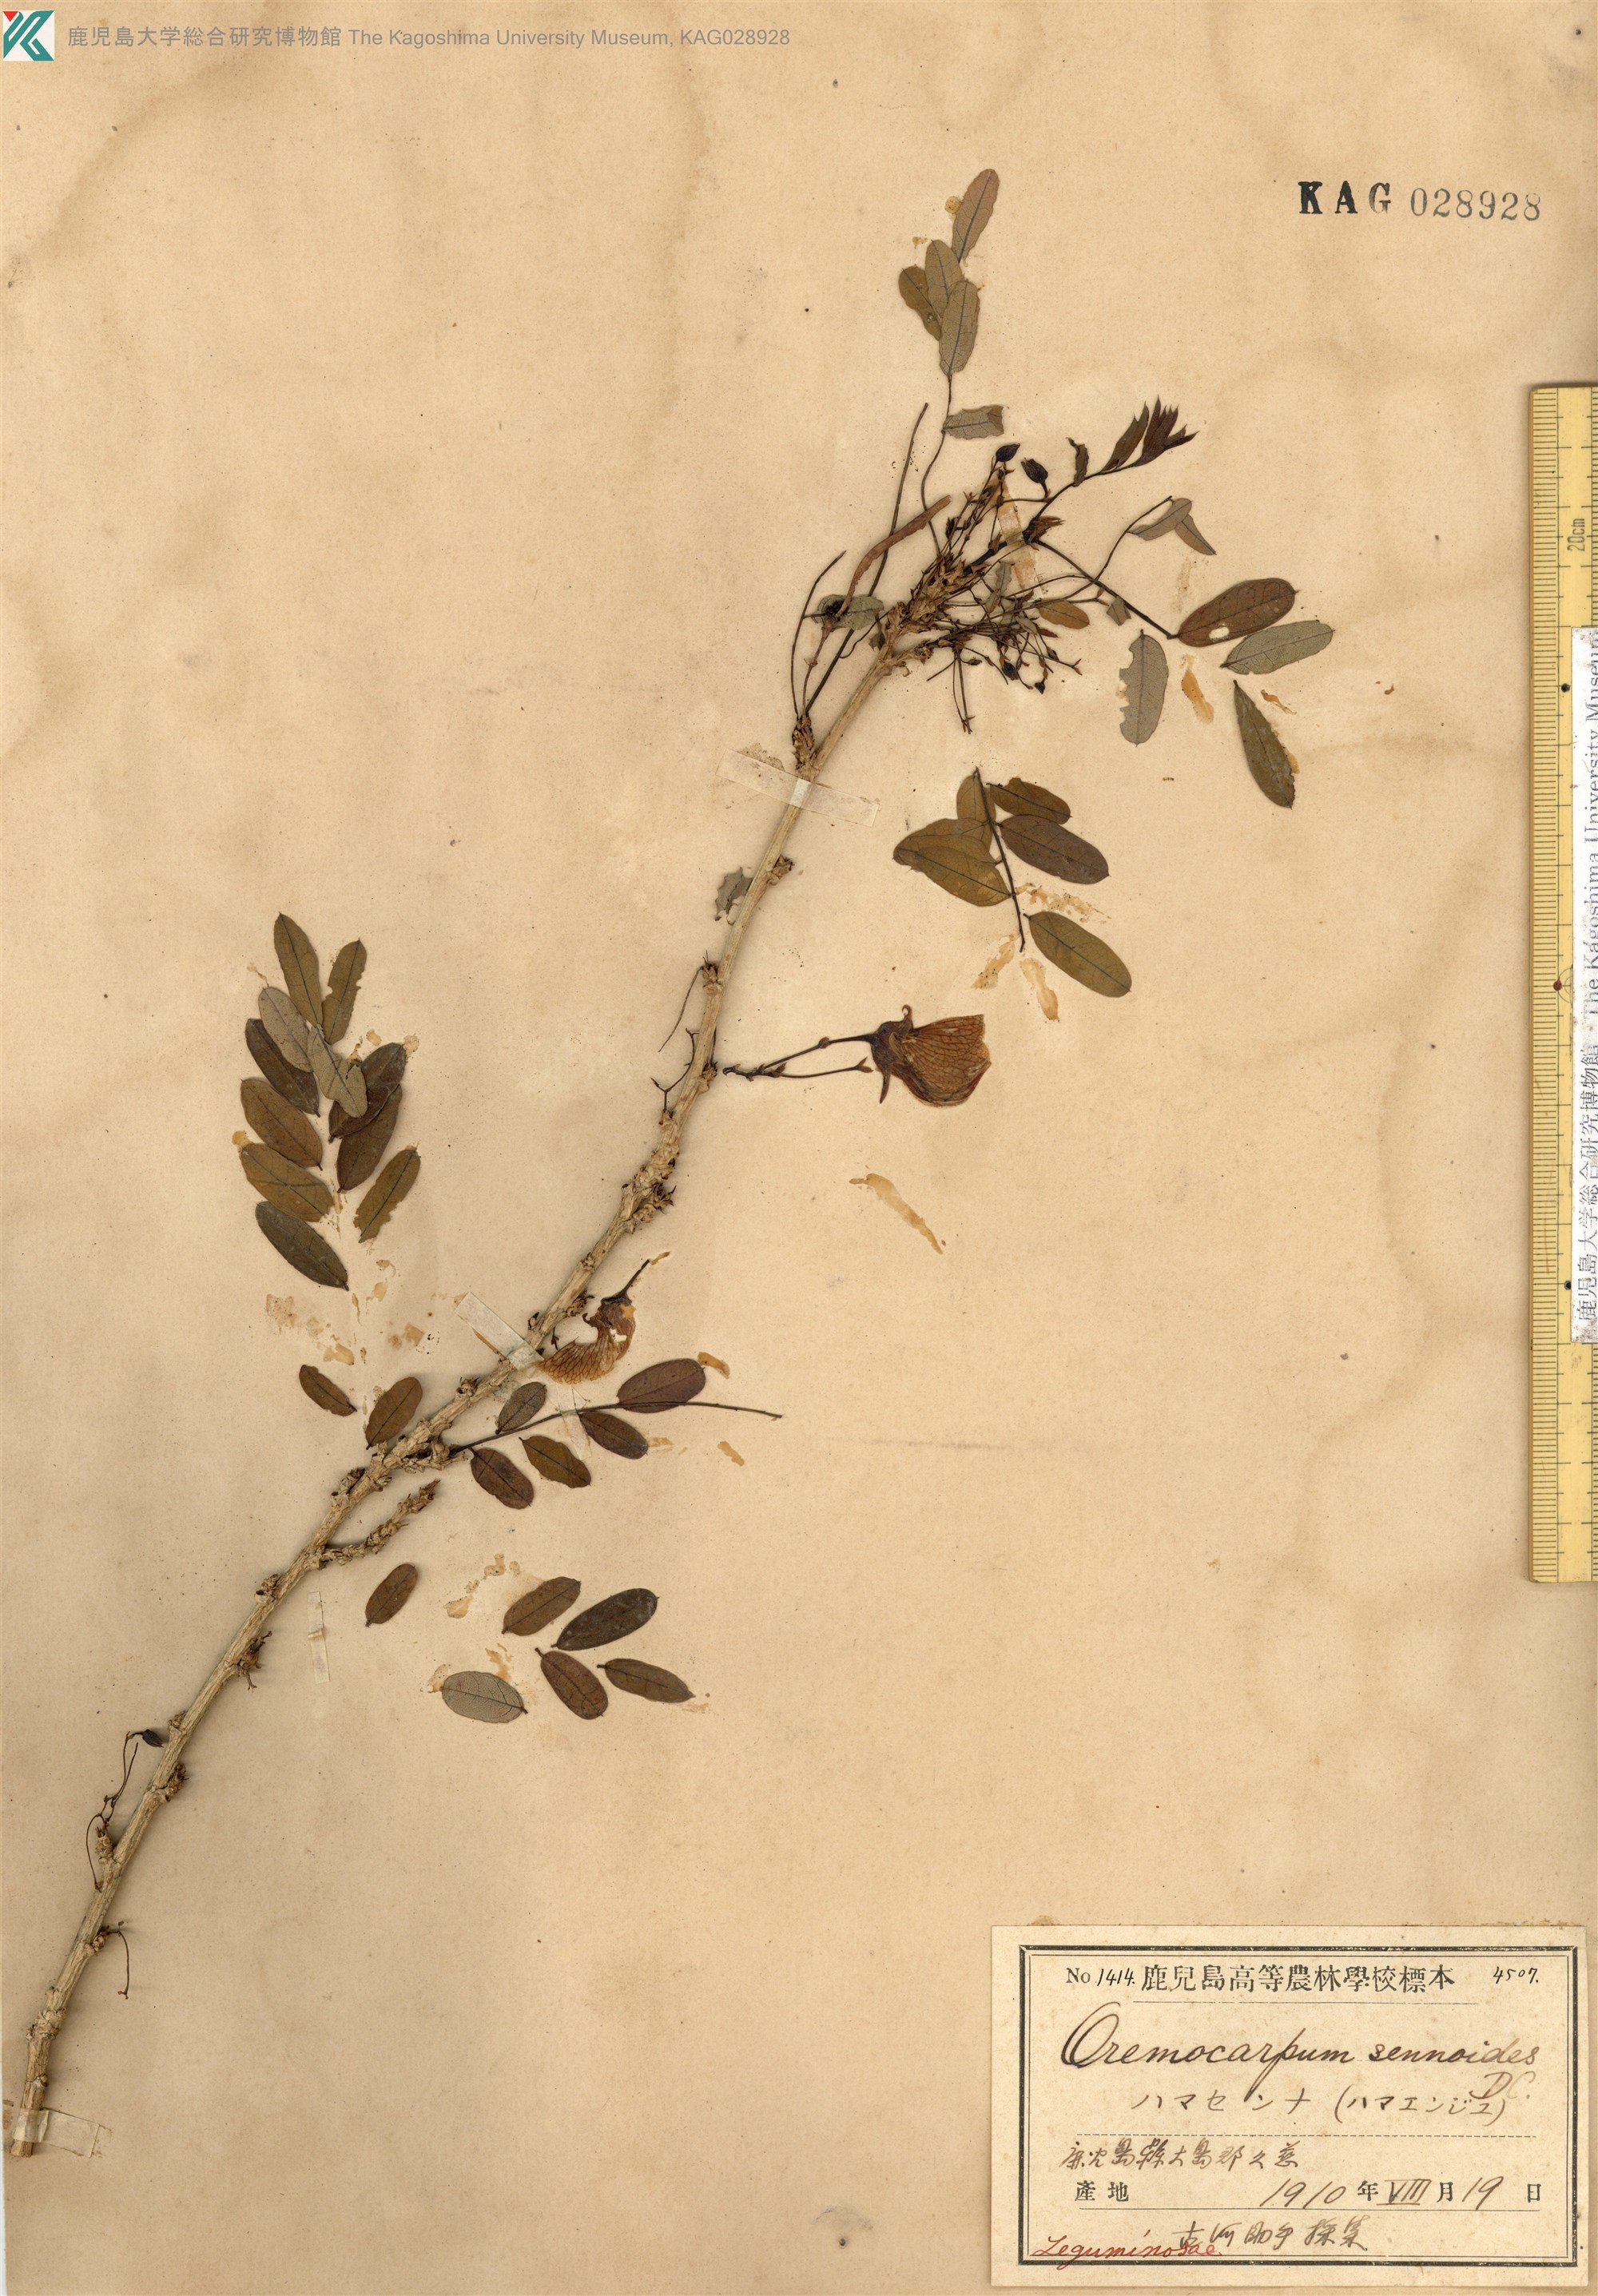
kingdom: Plantae
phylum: Tracheophyta
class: Magnoliopsida
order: Fabales
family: Fabaceae
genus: Ormocarpum
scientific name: Ormocarpum cochinchinense
